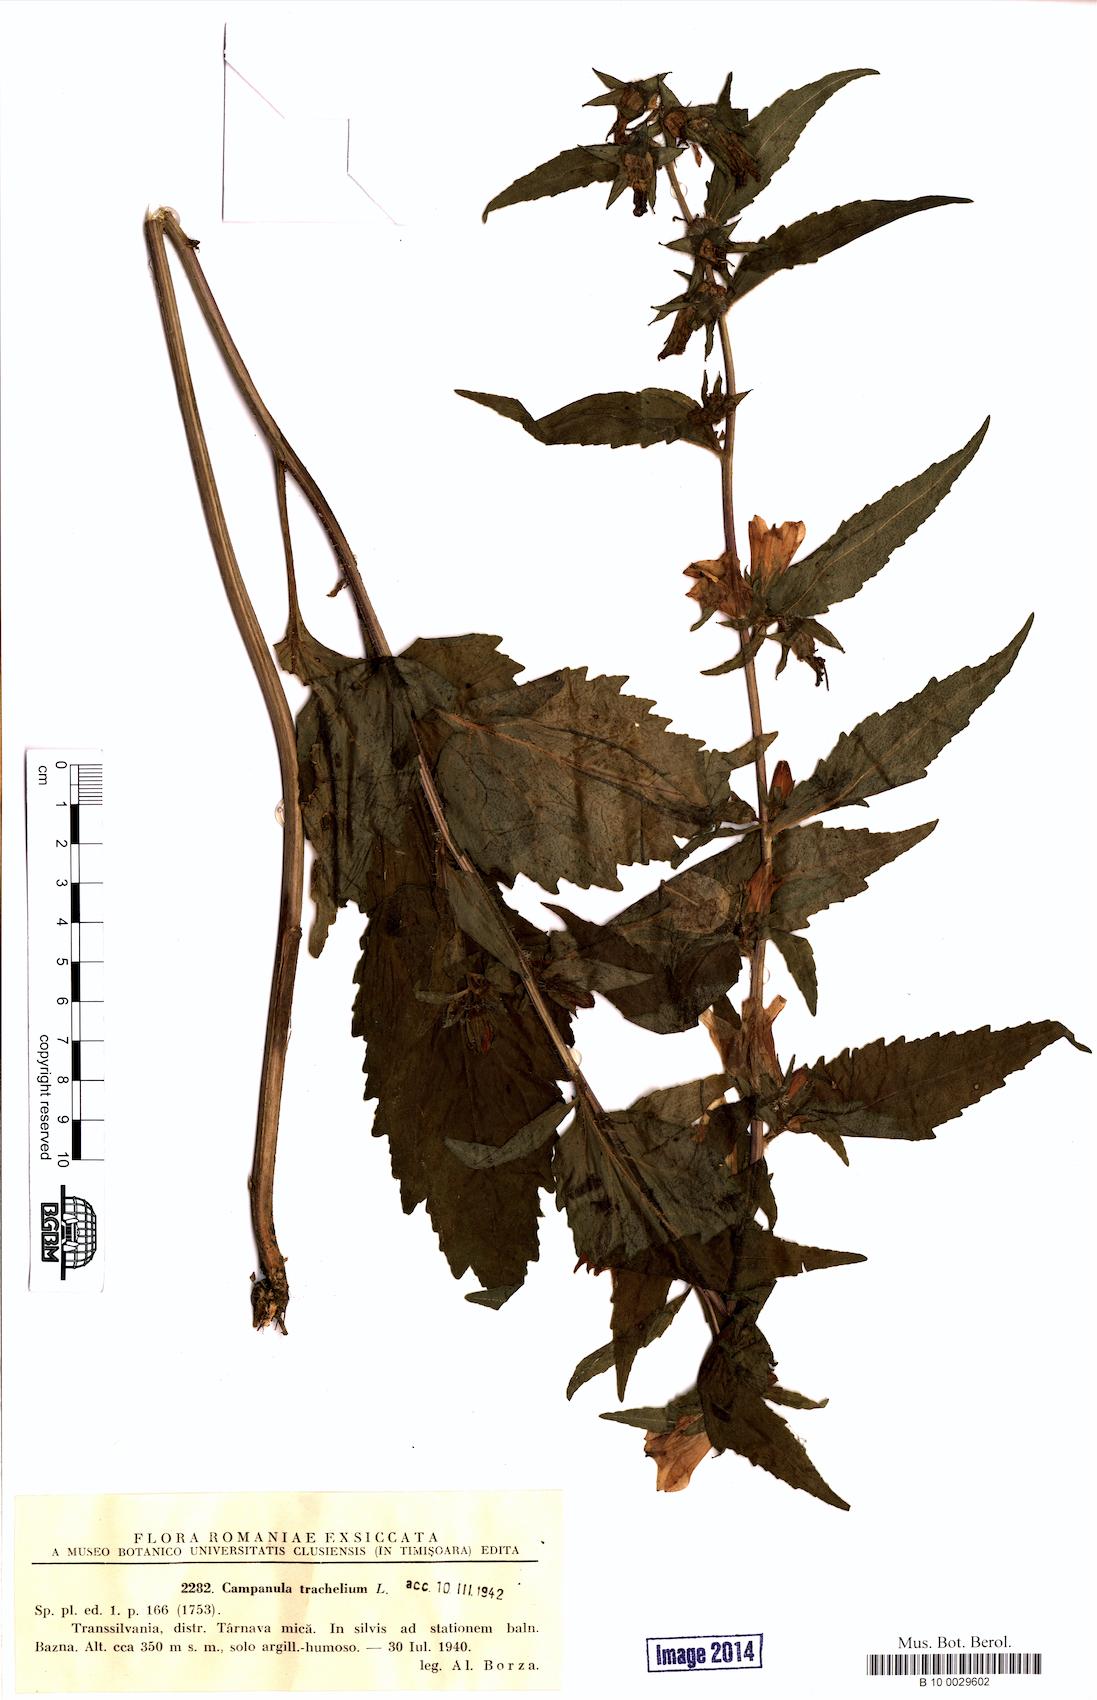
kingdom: Plantae
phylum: Tracheophyta
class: Magnoliopsida
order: Asterales
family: Campanulaceae
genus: Campanula
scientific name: Campanula trachelium
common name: Nettle-leaved bellflower
